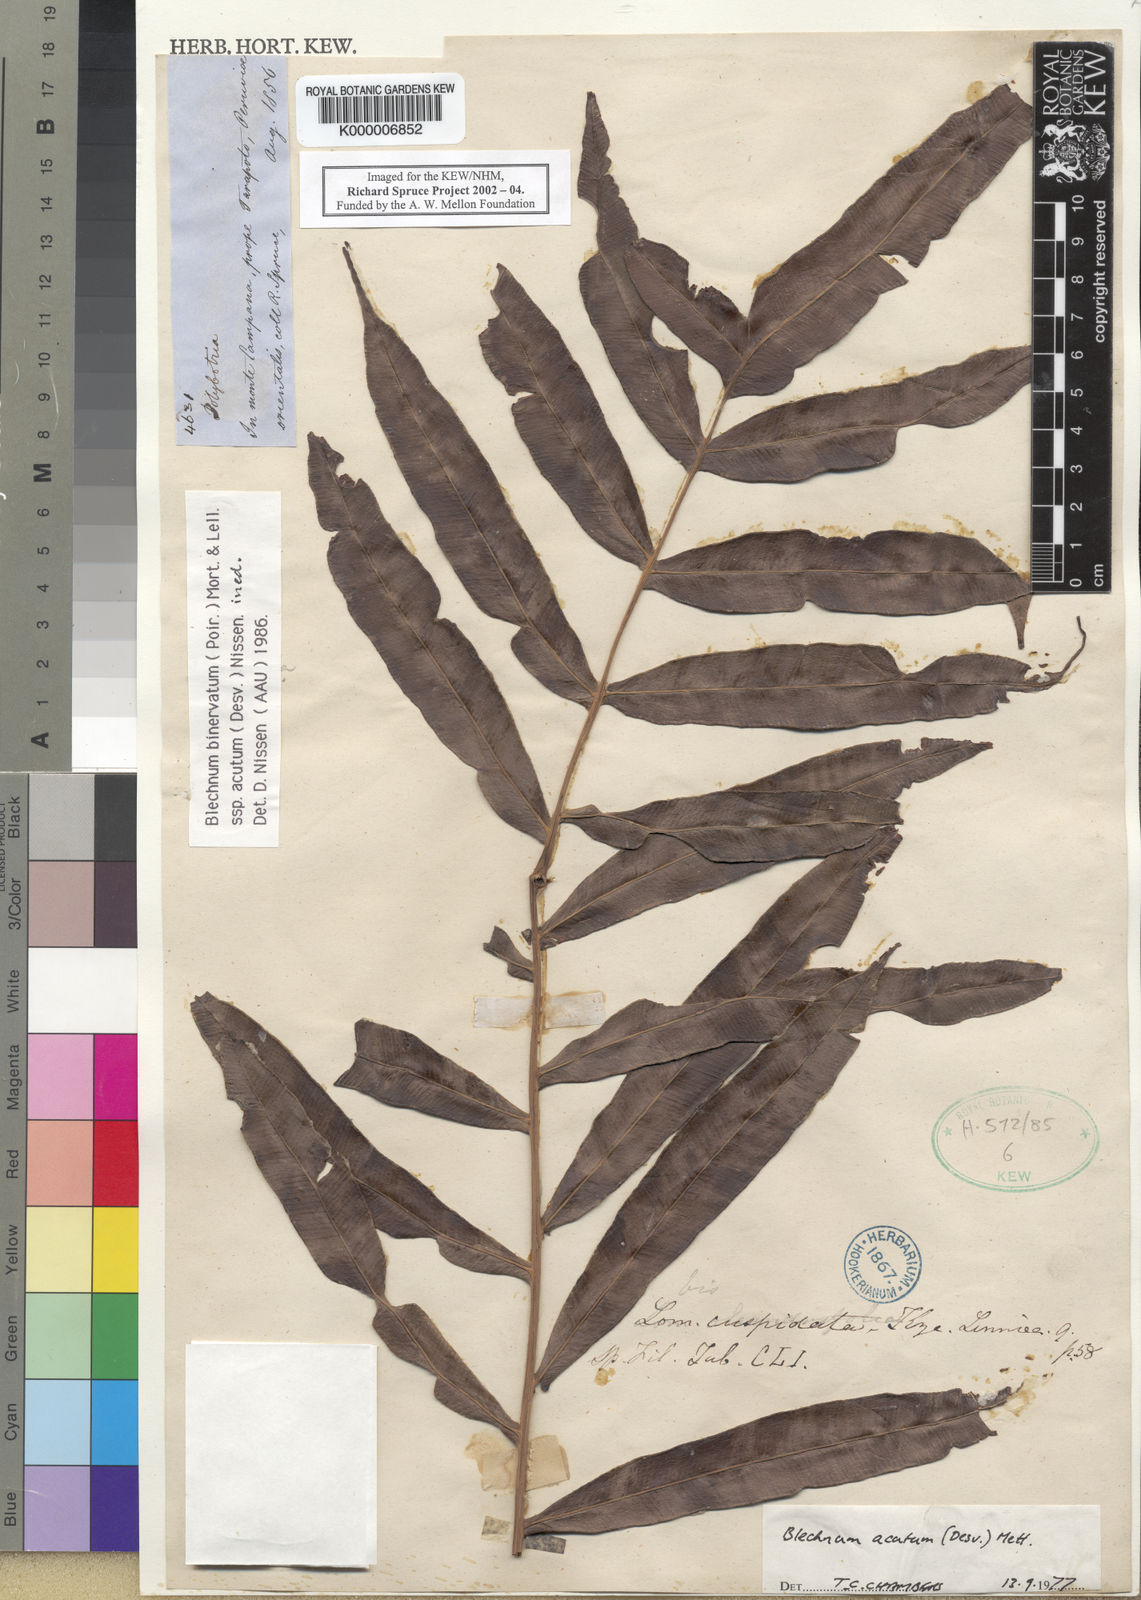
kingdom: Plantae
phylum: Tracheophyta
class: Polypodiopsida
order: Polypodiales
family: Blechnaceae
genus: Lomaridium
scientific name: Lomaridium binervatum
